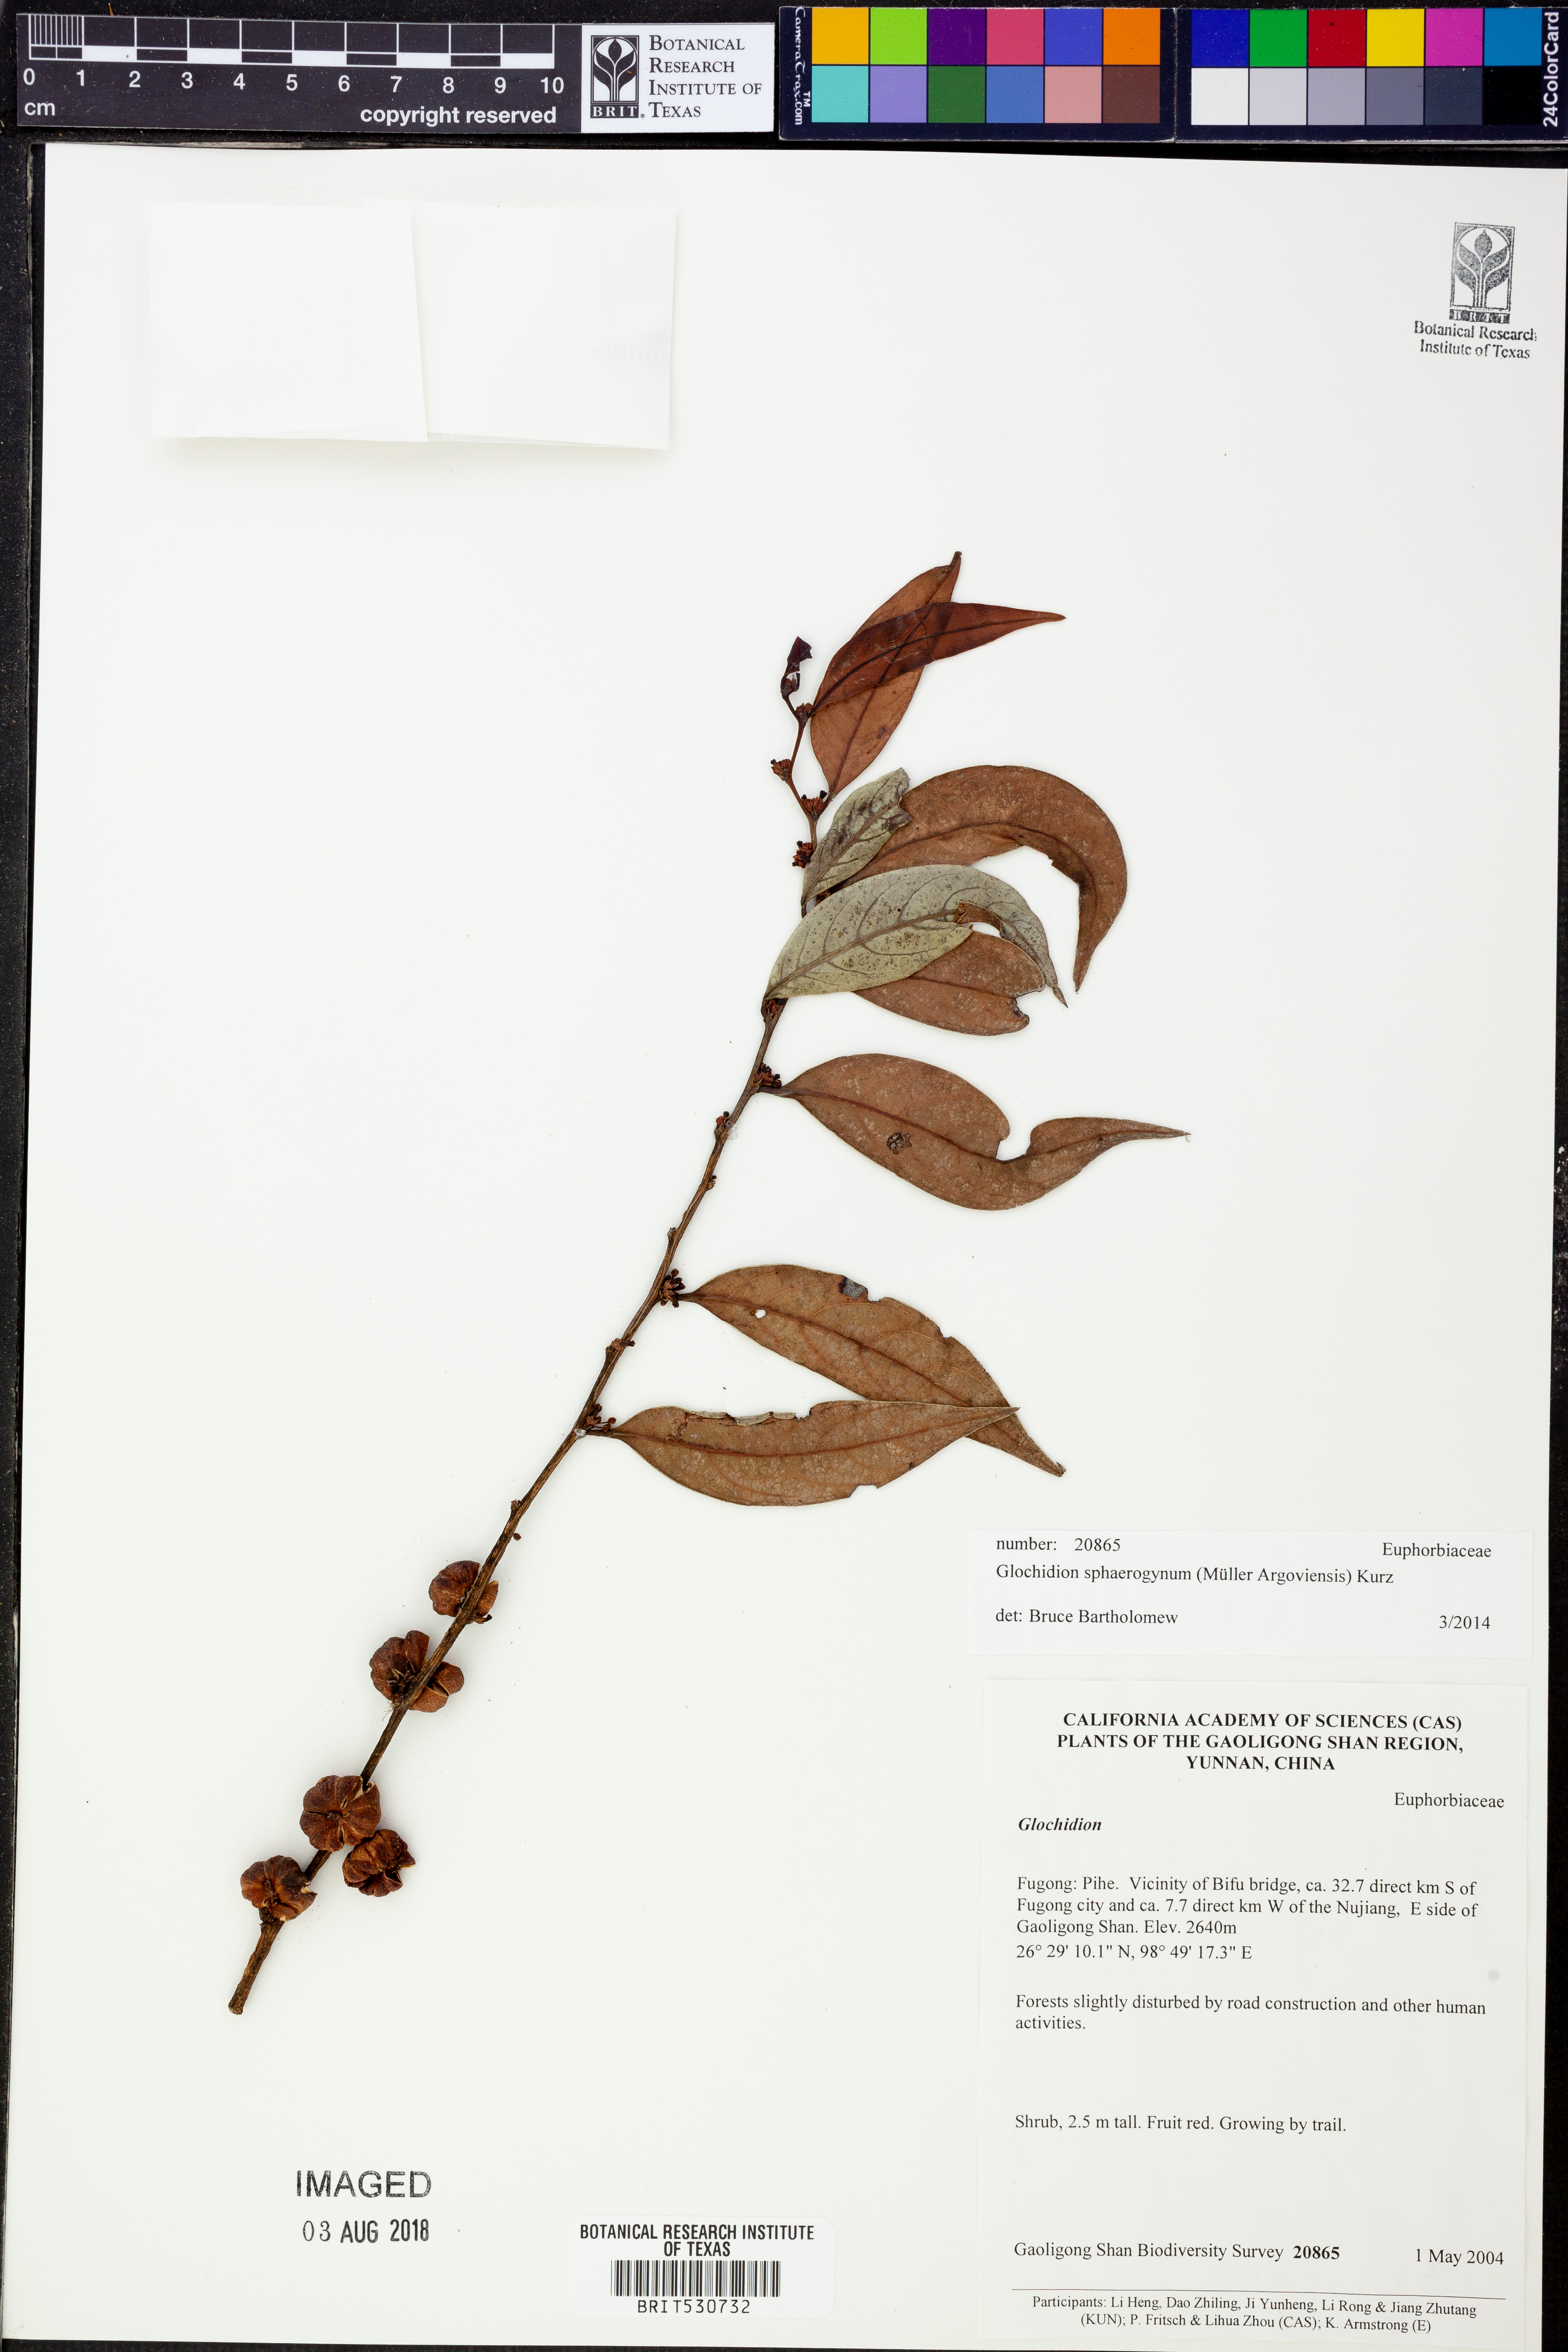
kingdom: Plantae
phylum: Tracheophyta
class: Magnoliopsida
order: Malpighiales
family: Phyllanthaceae
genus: Glochidion
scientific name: Glochidion sphaerogynum
